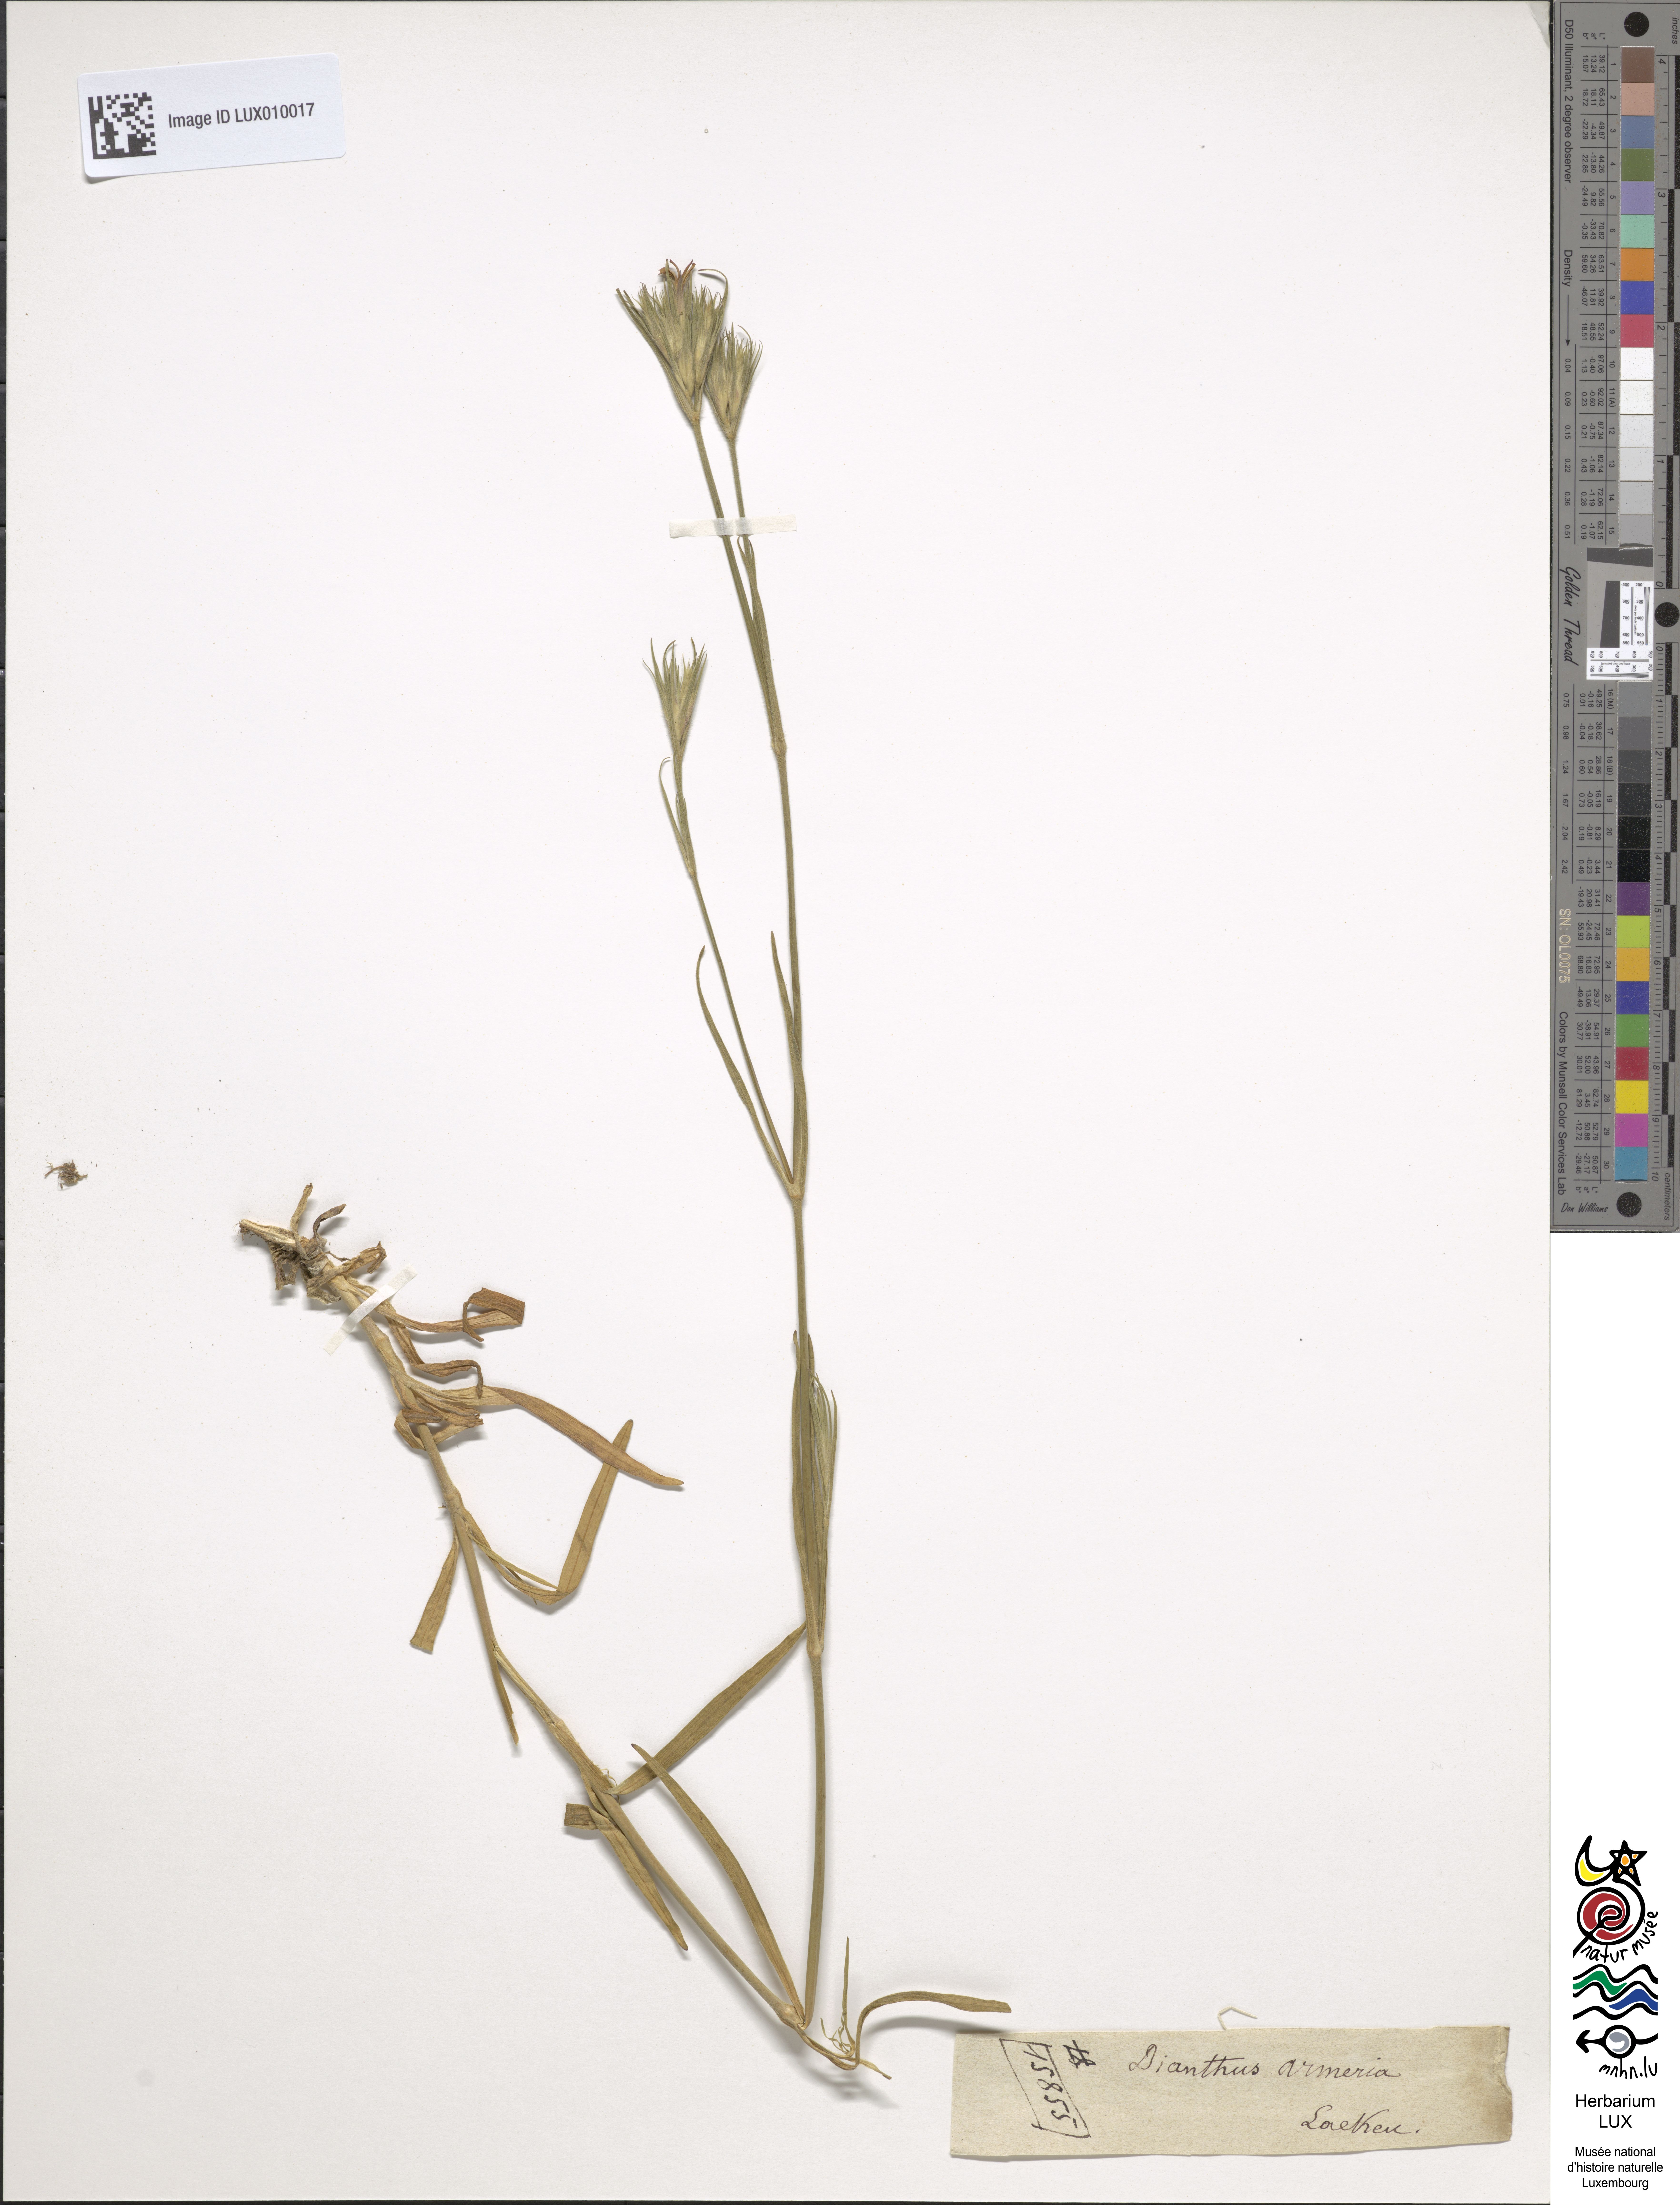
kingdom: Plantae
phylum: Tracheophyta
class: Magnoliopsida
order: Caryophyllales
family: Caryophyllaceae
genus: Dianthus
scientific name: Dianthus armeria
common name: Deptford pink
